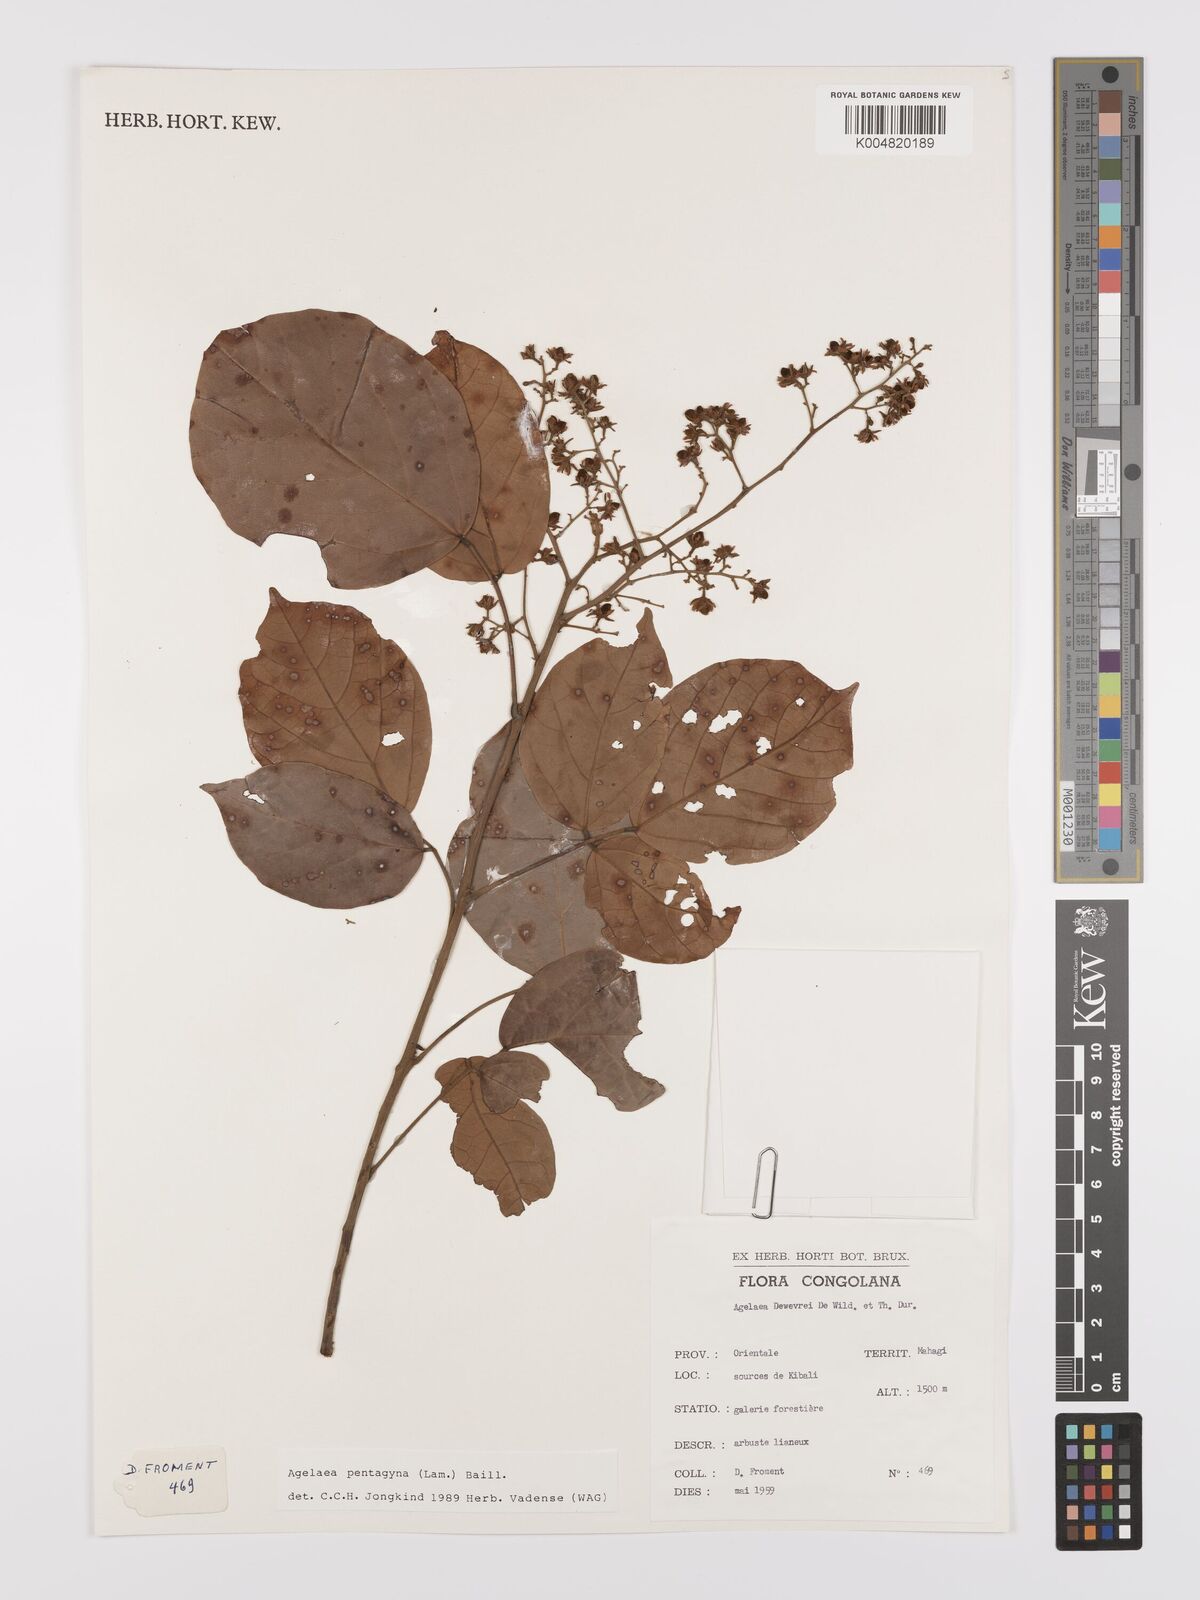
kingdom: Plantae
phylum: Tracheophyta
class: Magnoliopsida
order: Oxalidales
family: Connaraceae
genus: Agelaea
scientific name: Agelaea pentagyna
